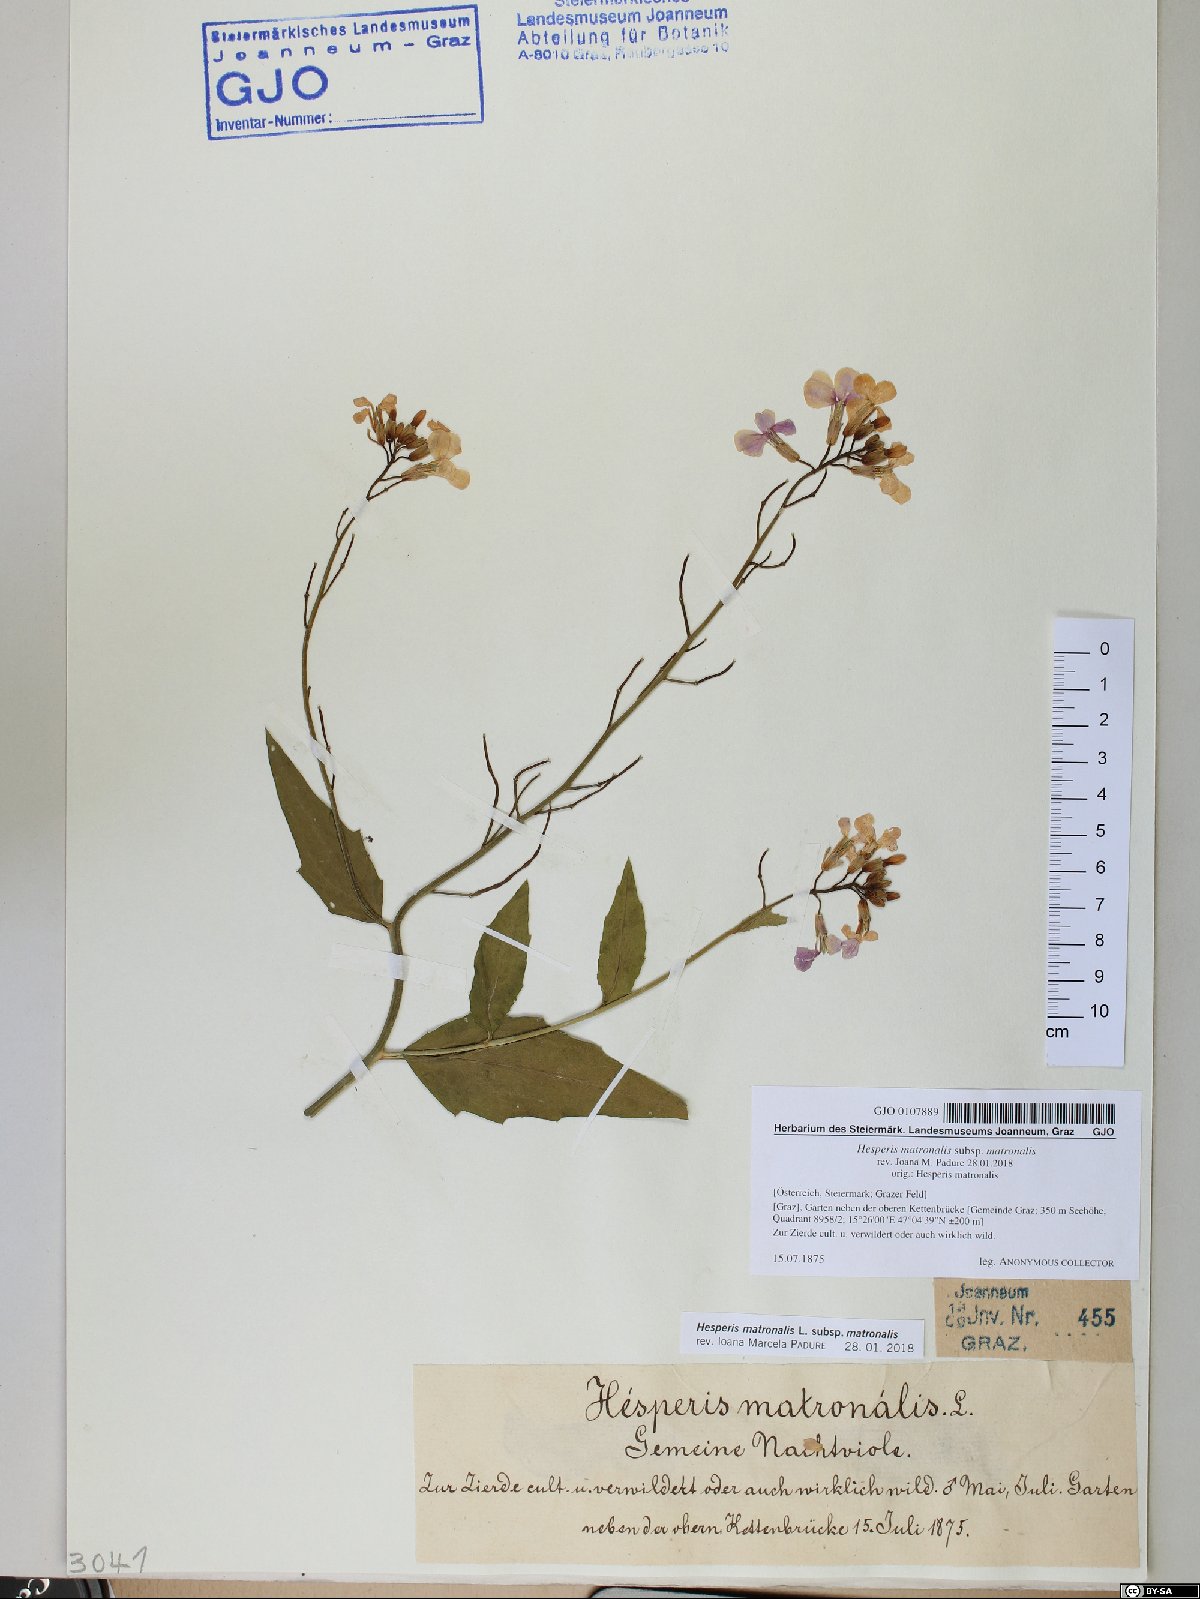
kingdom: Plantae
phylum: Tracheophyta
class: Magnoliopsida
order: Brassicales
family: Brassicaceae
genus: Hesperis
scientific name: Hesperis matronalis
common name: Dame's-violet
